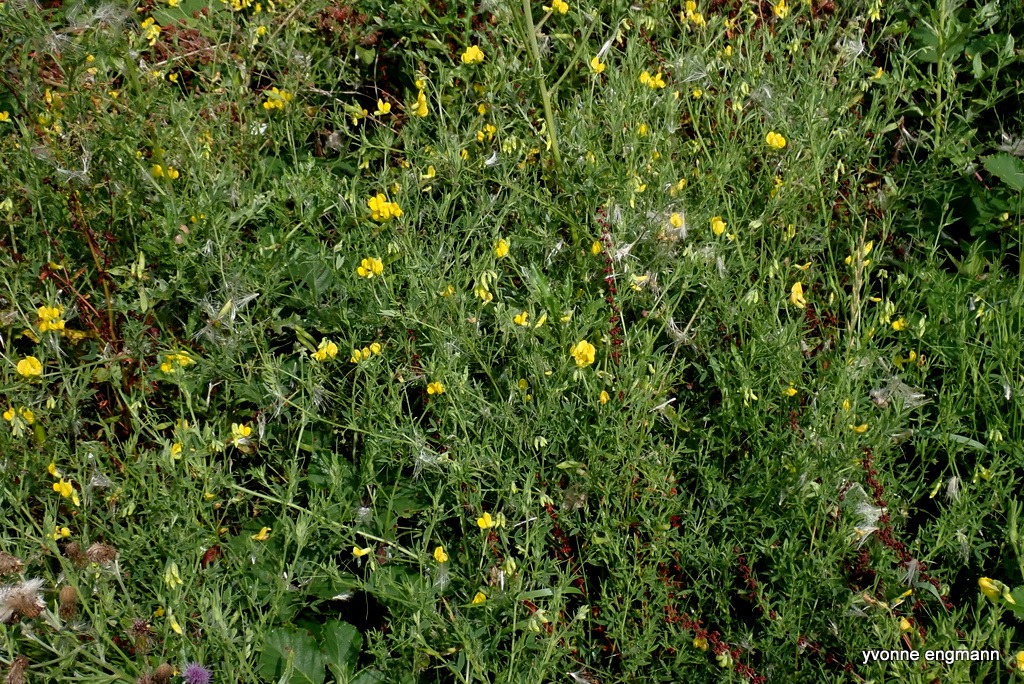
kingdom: Plantae
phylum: Tracheophyta
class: Magnoliopsida
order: Fabales
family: Fabaceae
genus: Lathyrus
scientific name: Lathyrus pratensis
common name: Gul fladbælg
